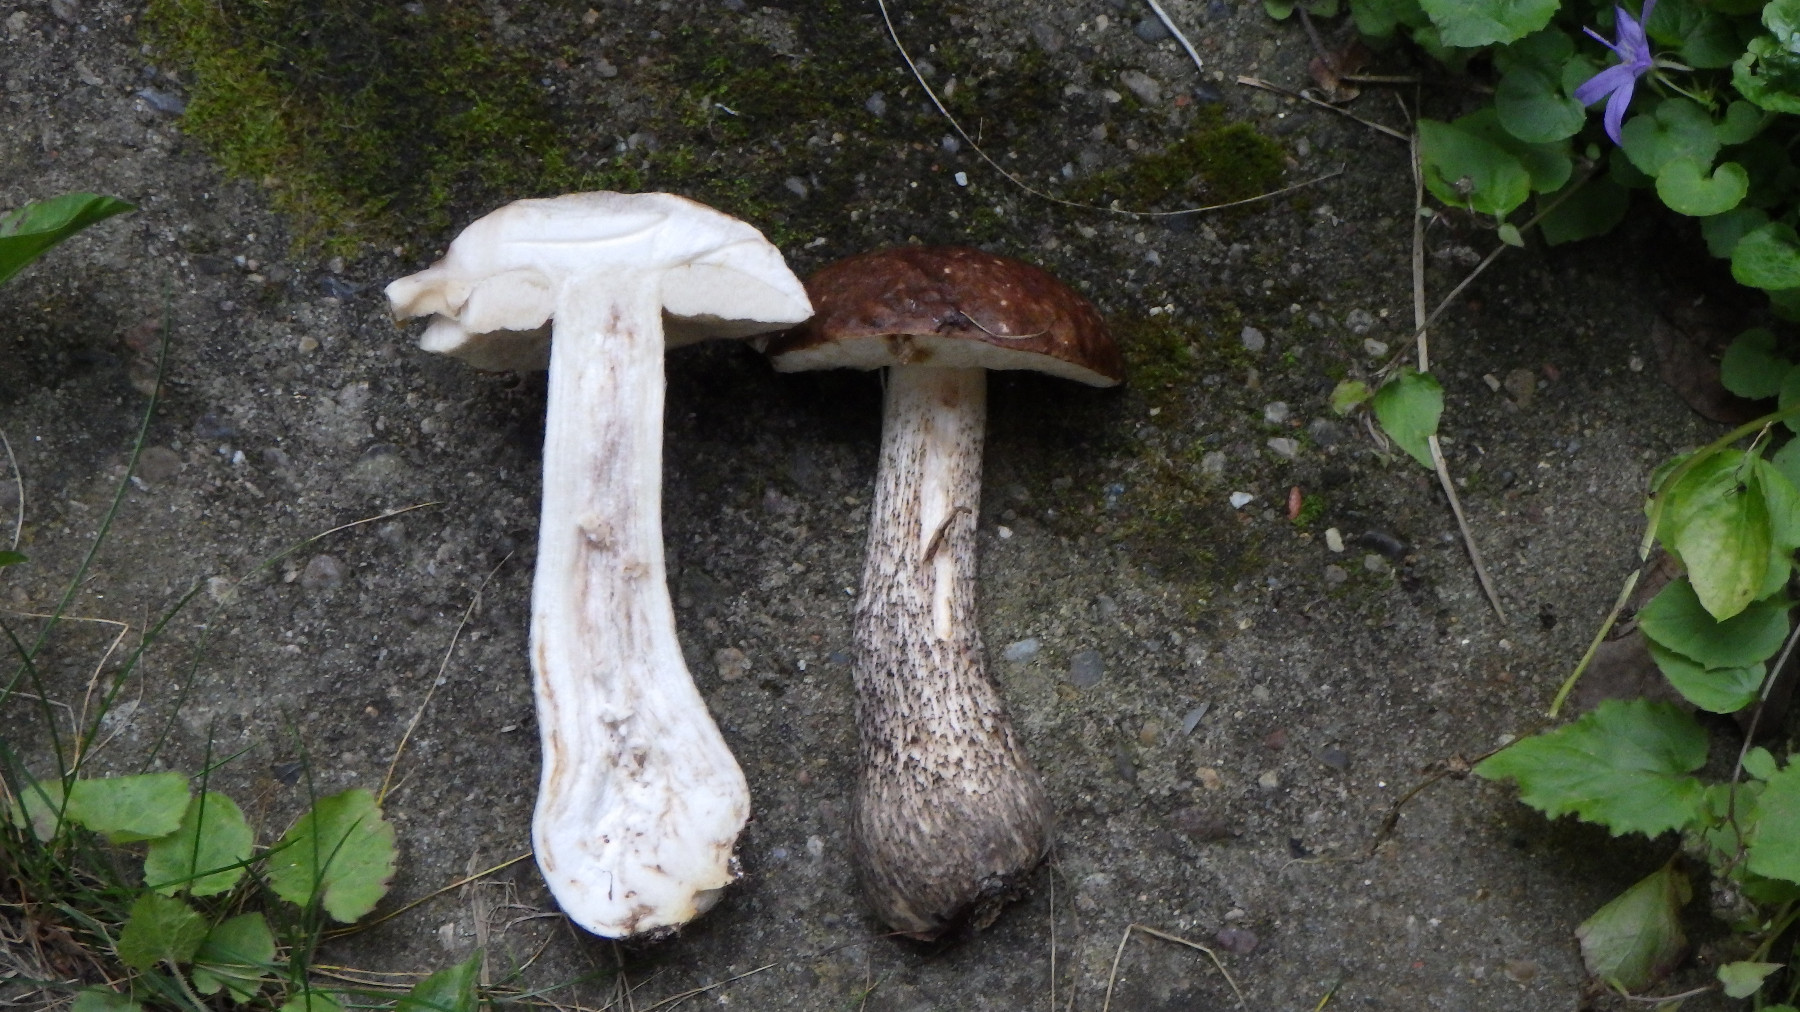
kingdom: Fungi
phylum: Basidiomycota
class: Agaricomycetes
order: Boletales
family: Boletaceae
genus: Leccinum
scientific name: Leccinum scabrum
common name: brun skælrørhat
